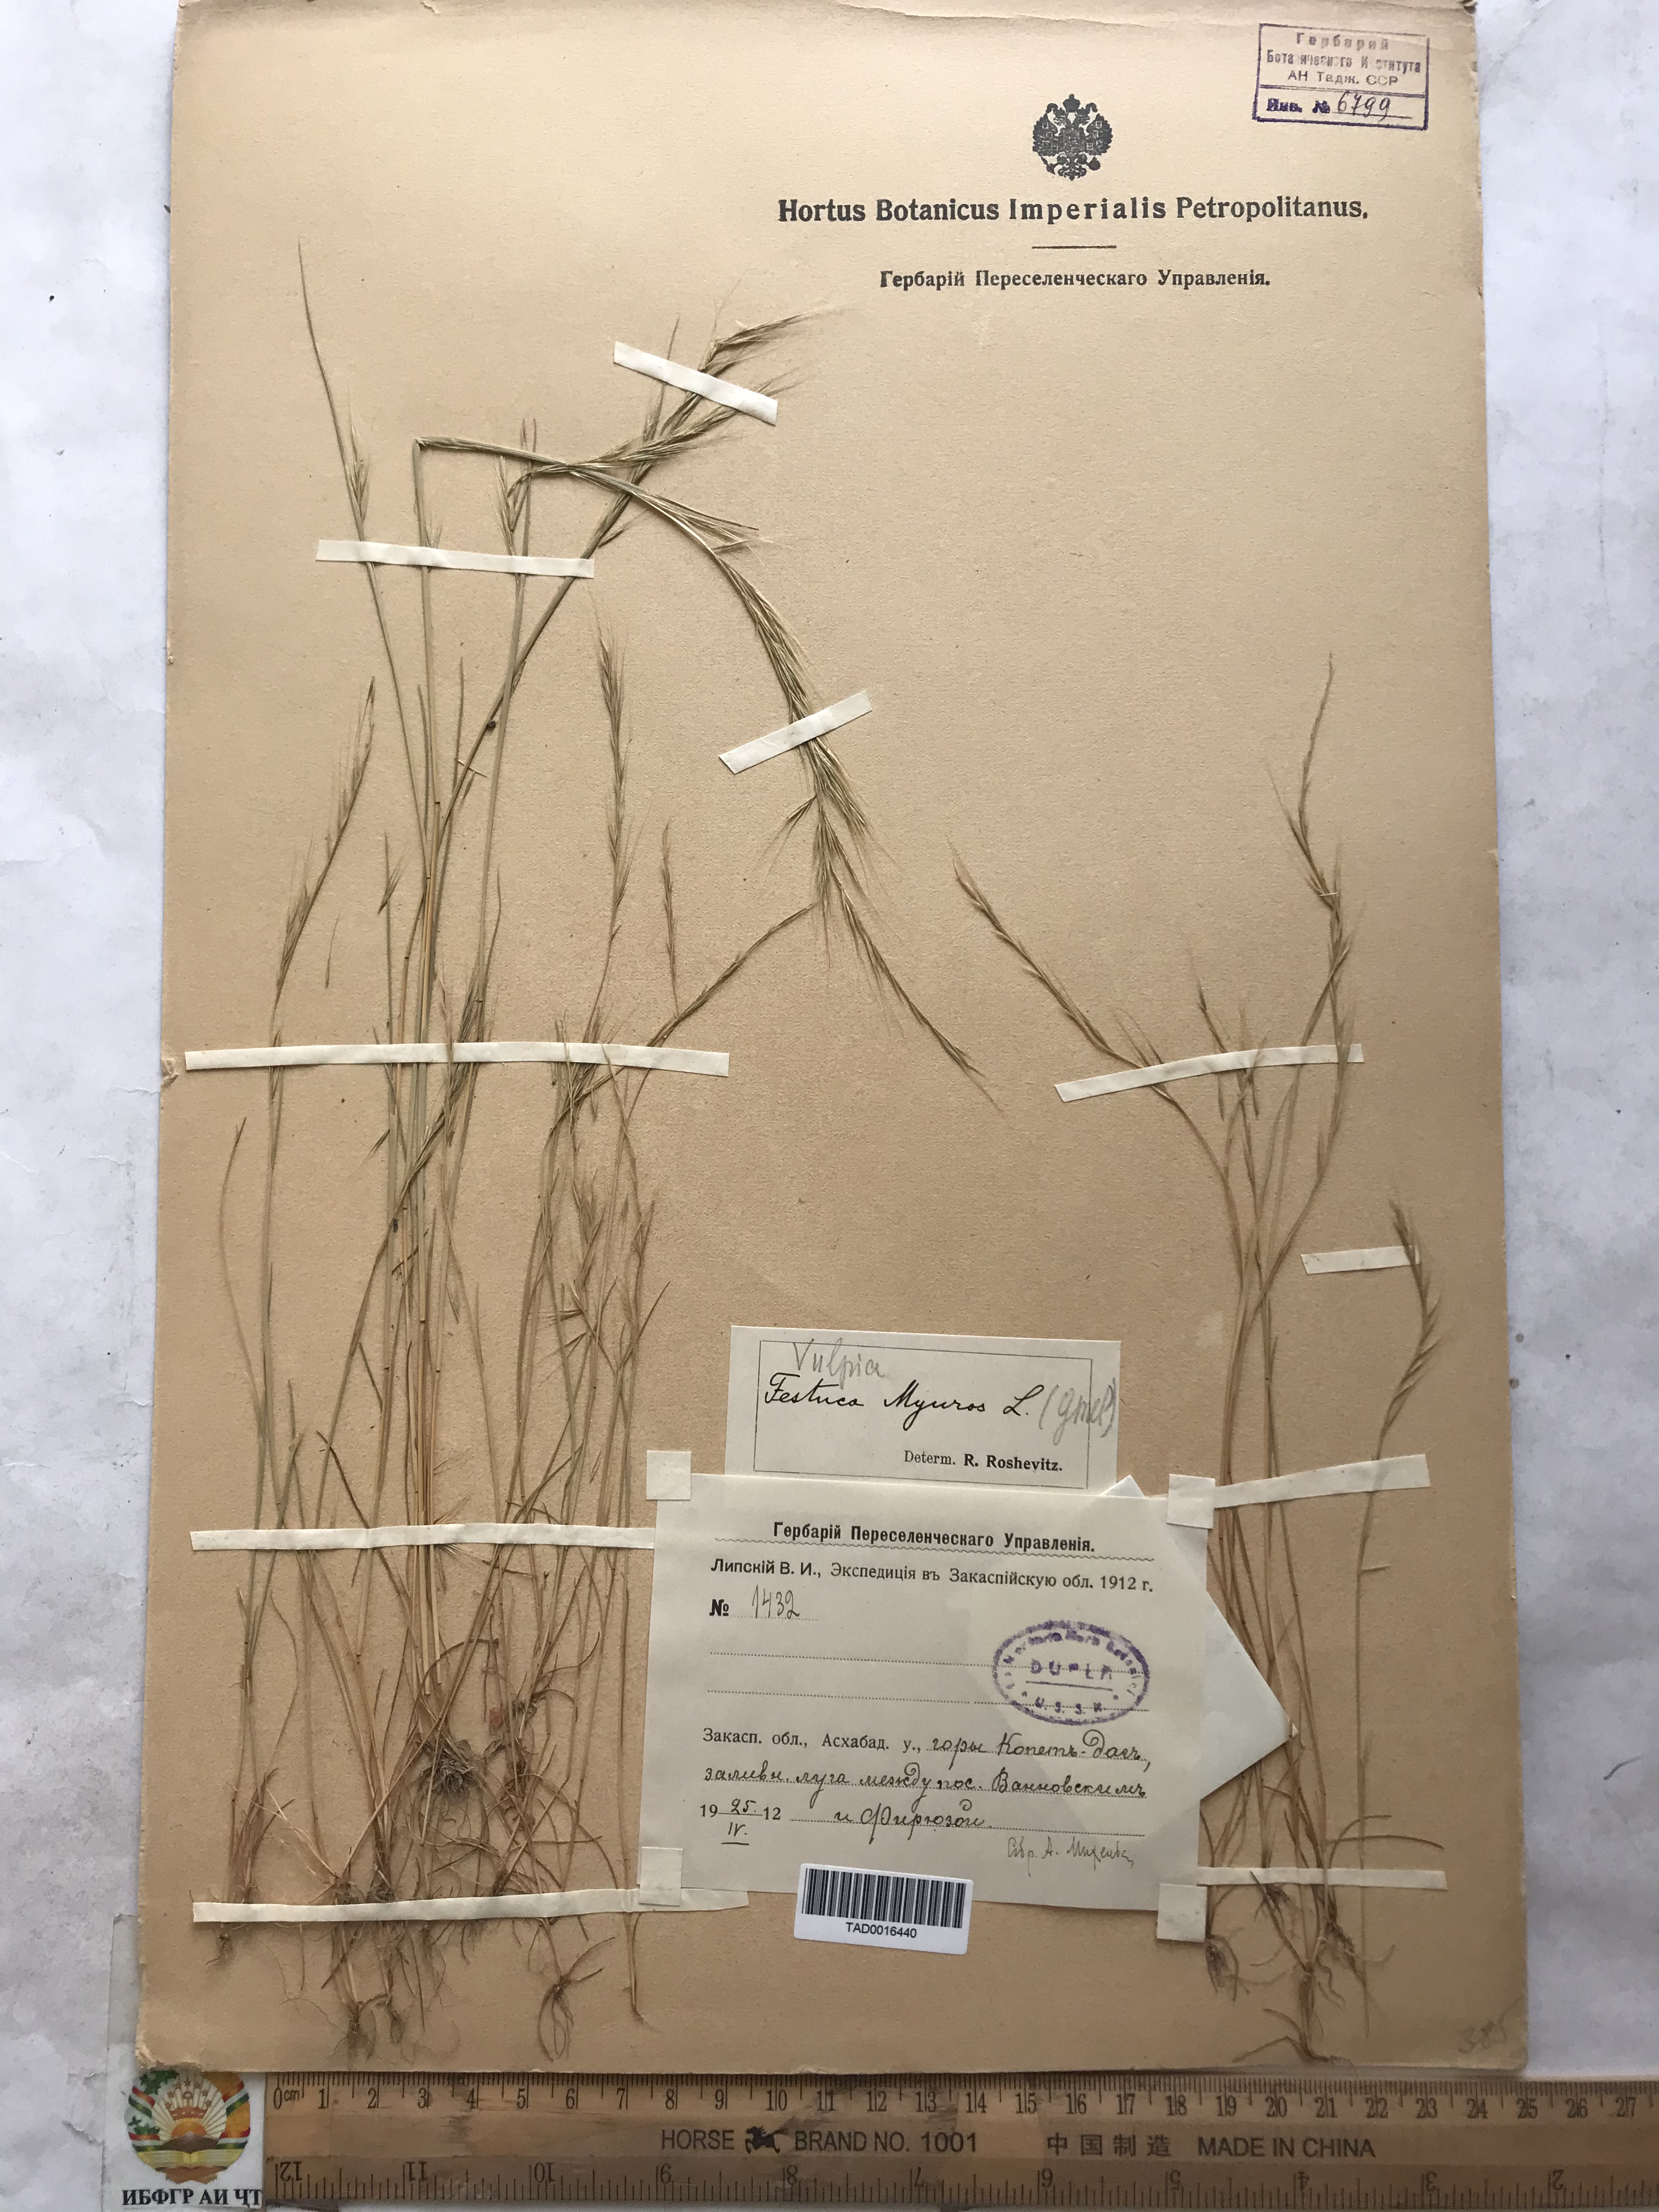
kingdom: Plantae
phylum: Tracheophyta
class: Liliopsida
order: Poales
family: Poaceae
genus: Festuca
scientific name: Festuca myuros
